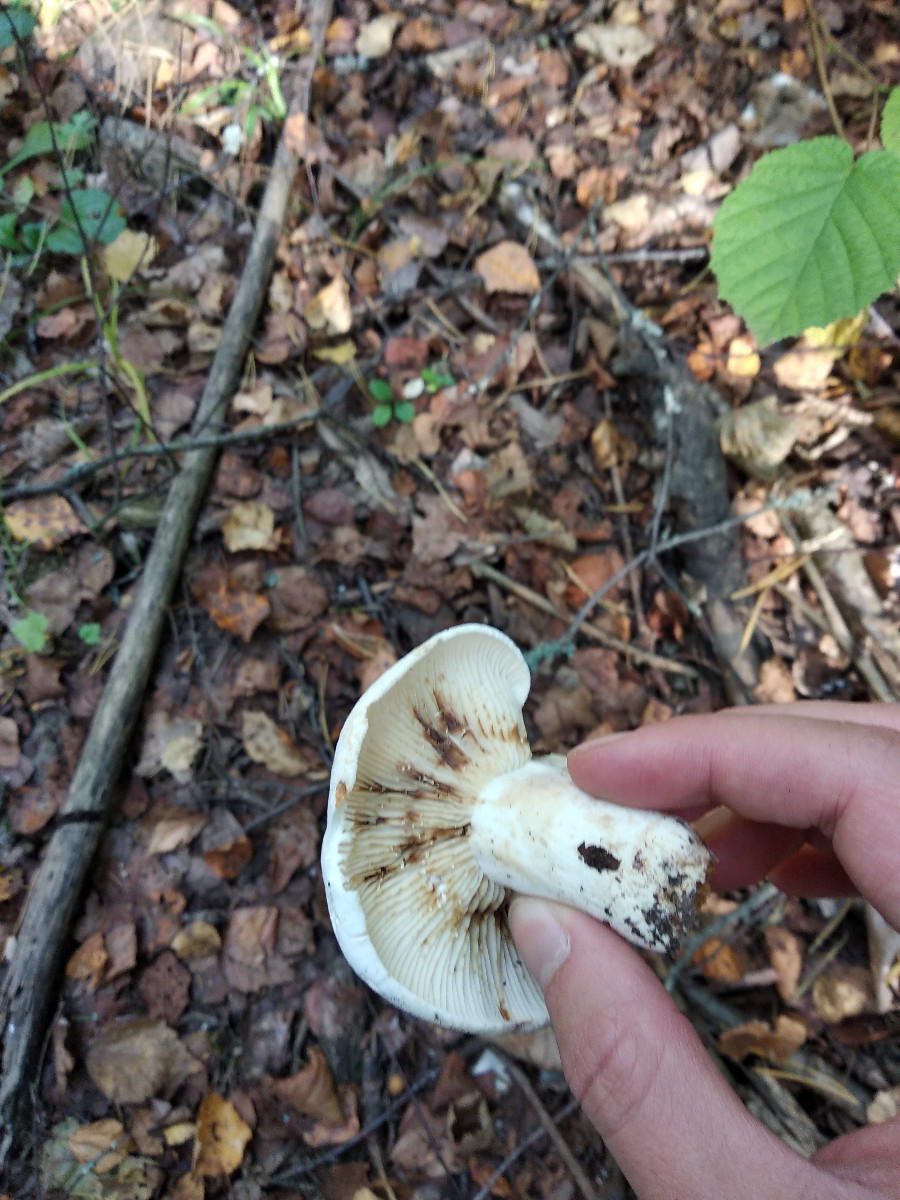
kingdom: Fungi
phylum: Basidiomycota
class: Agaricomycetes
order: Russulales
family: Russulaceae
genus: Lactifluus
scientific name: Lactifluus
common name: mælkehat
